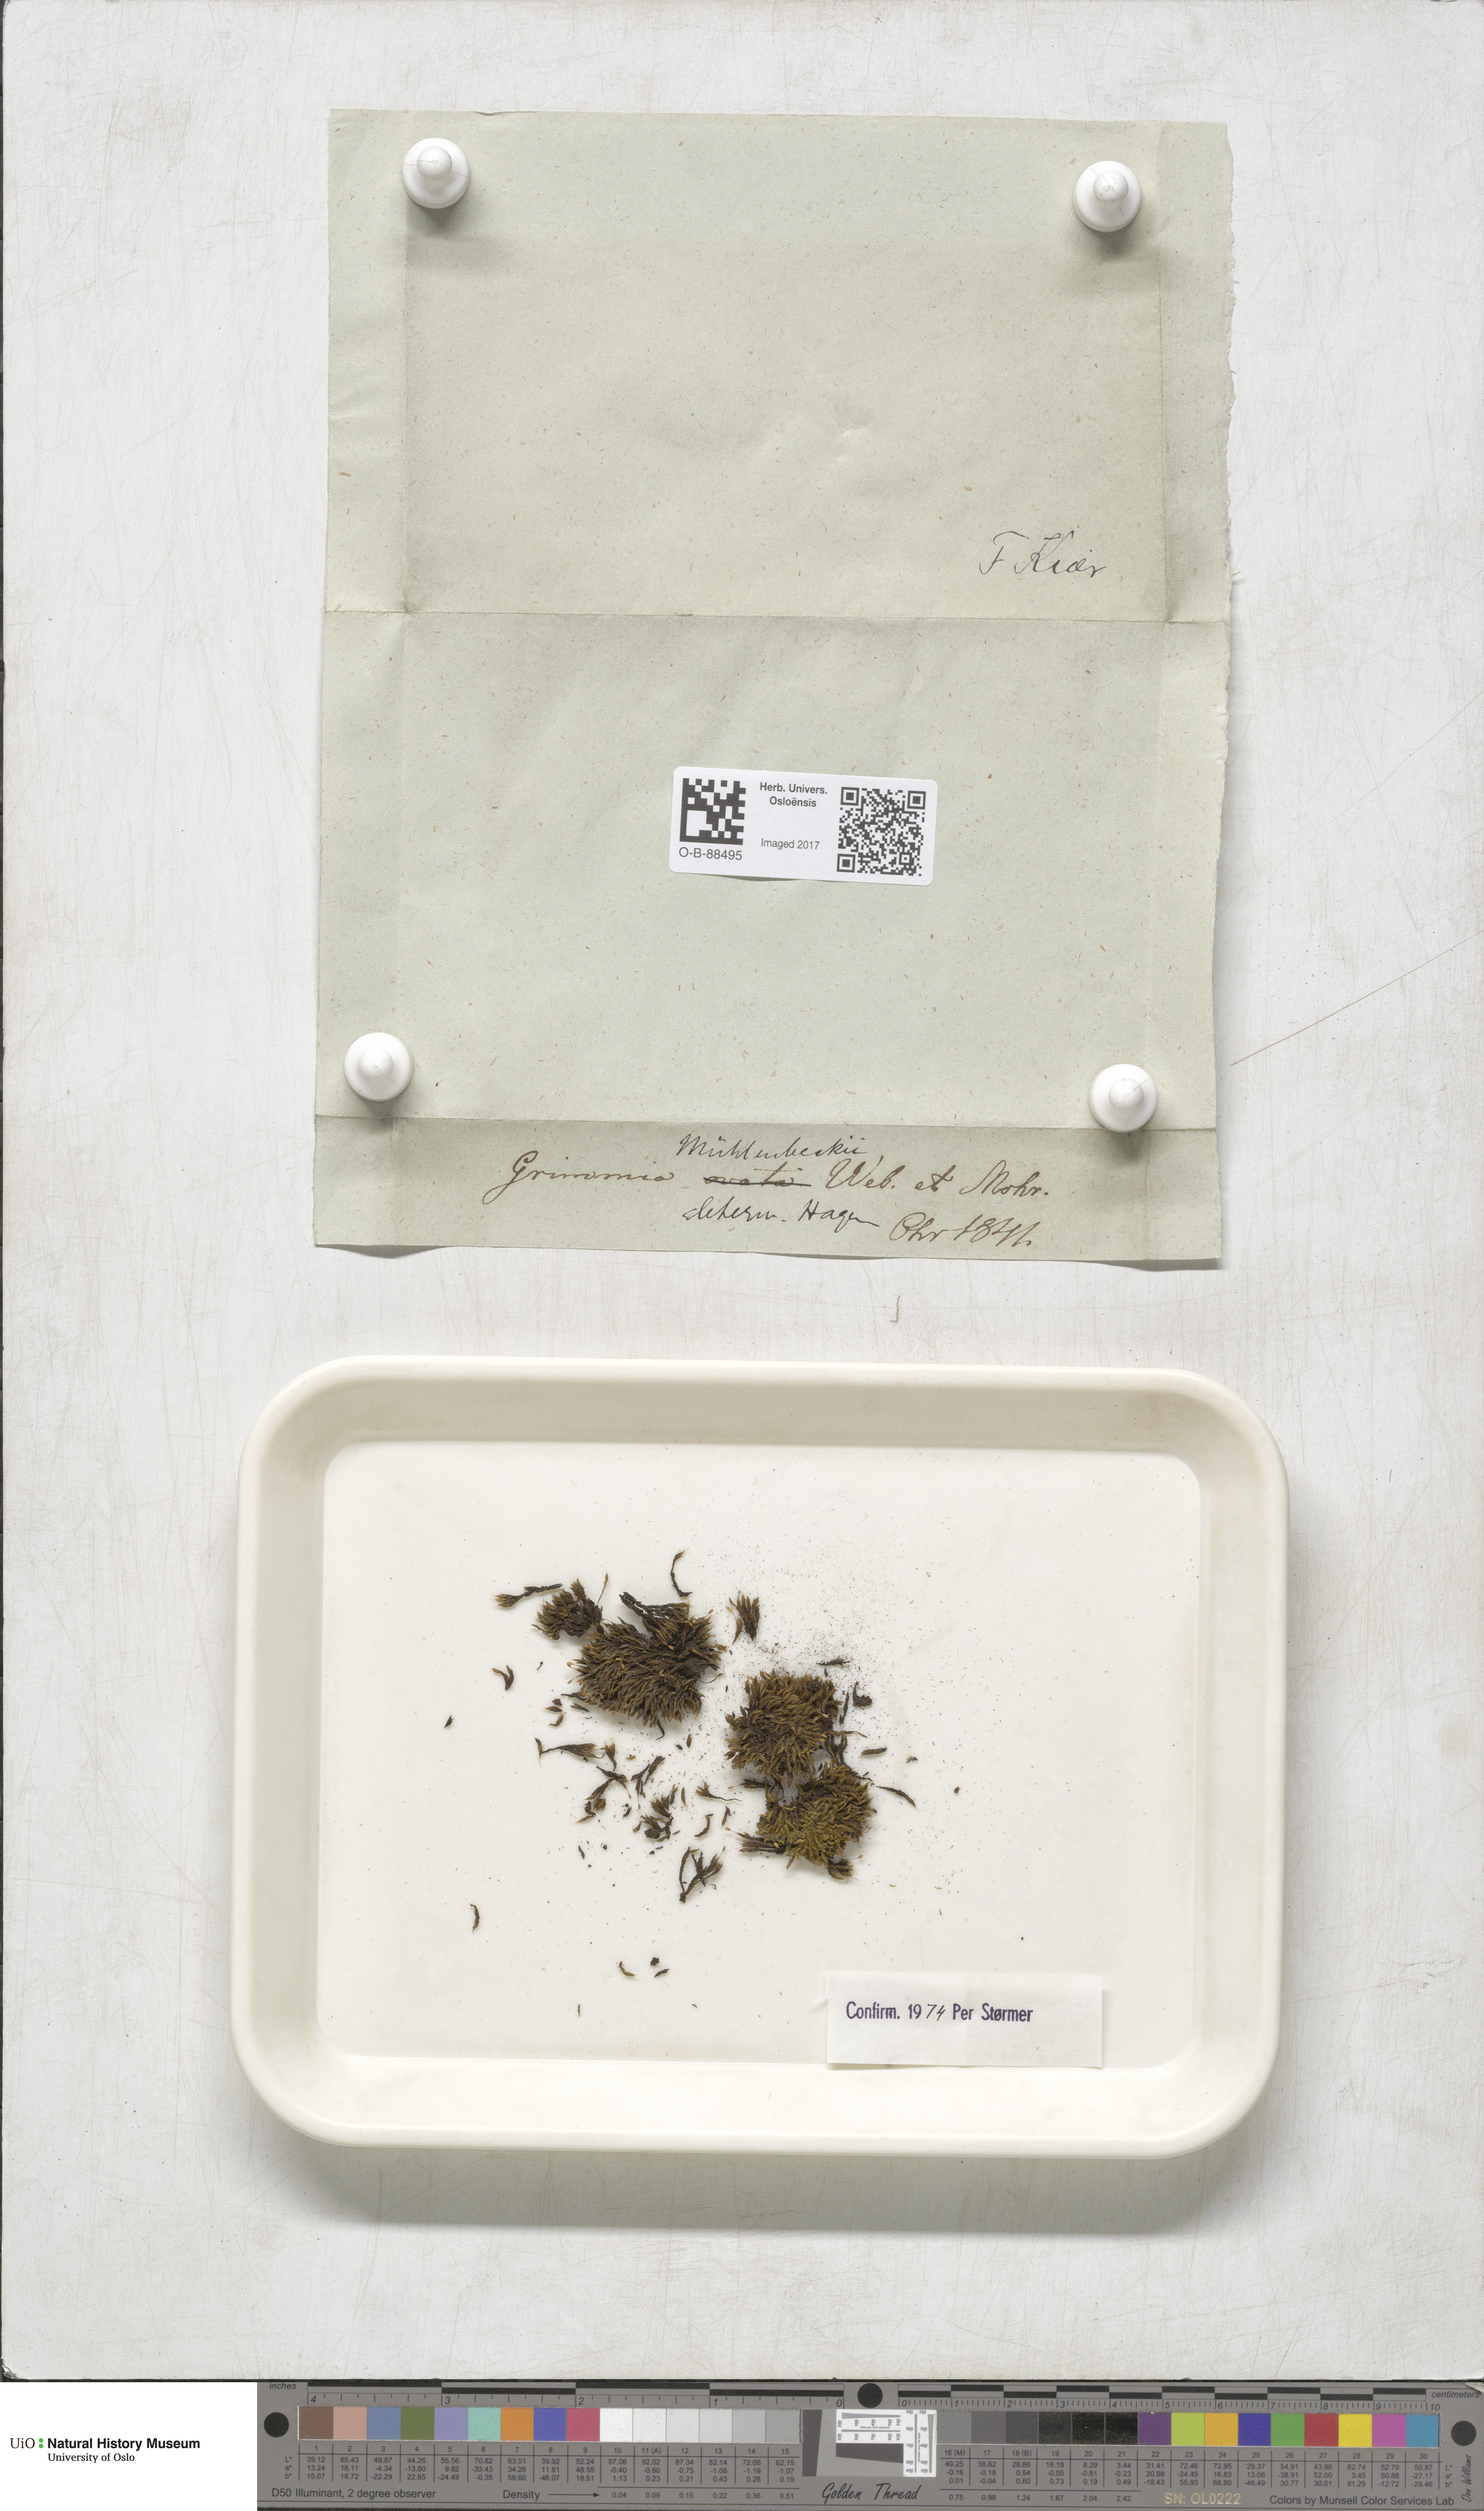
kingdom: Plantae
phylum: Bryophyta
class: Bryopsida
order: Grimmiales
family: Grimmiaceae
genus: Grimmia
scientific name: Grimmia trichophylla
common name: Hair-pointed grimmia
